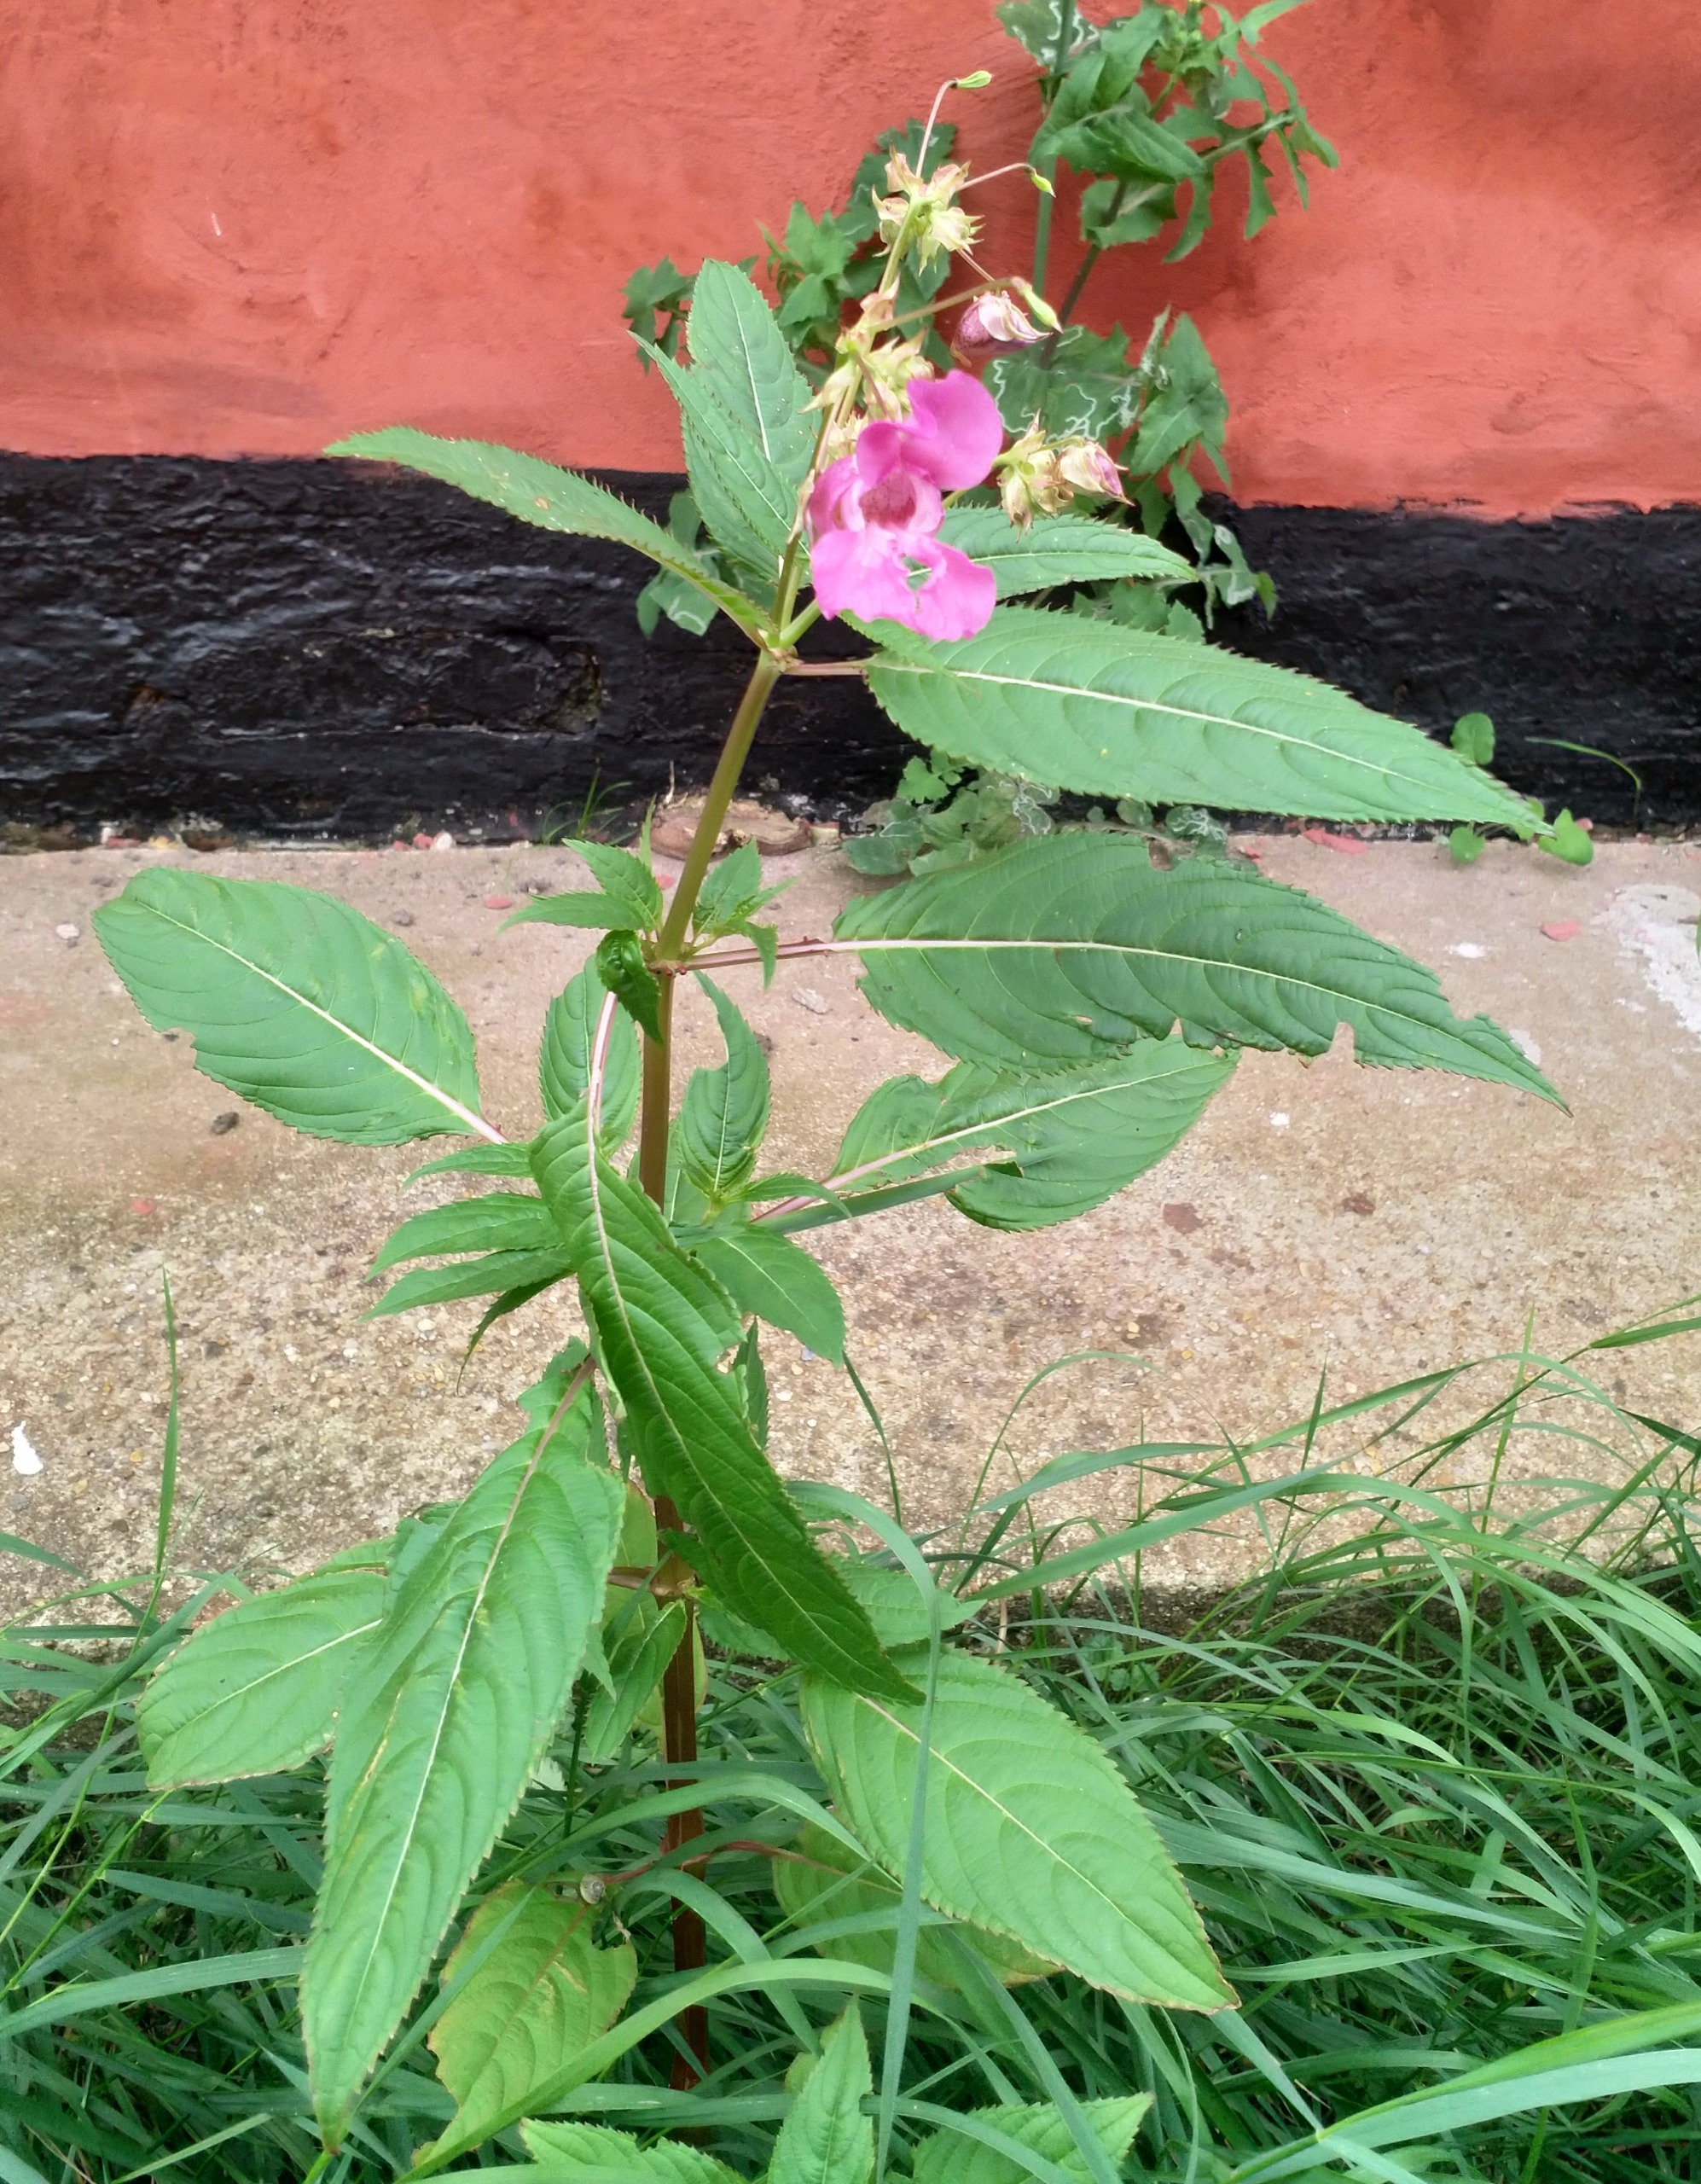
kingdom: Plantae
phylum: Tracheophyta
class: Magnoliopsida
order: Ericales
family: Balsaminaceae
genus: Impatiens
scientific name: Impatiens glandulifera
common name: Kæmpe-balsamin
